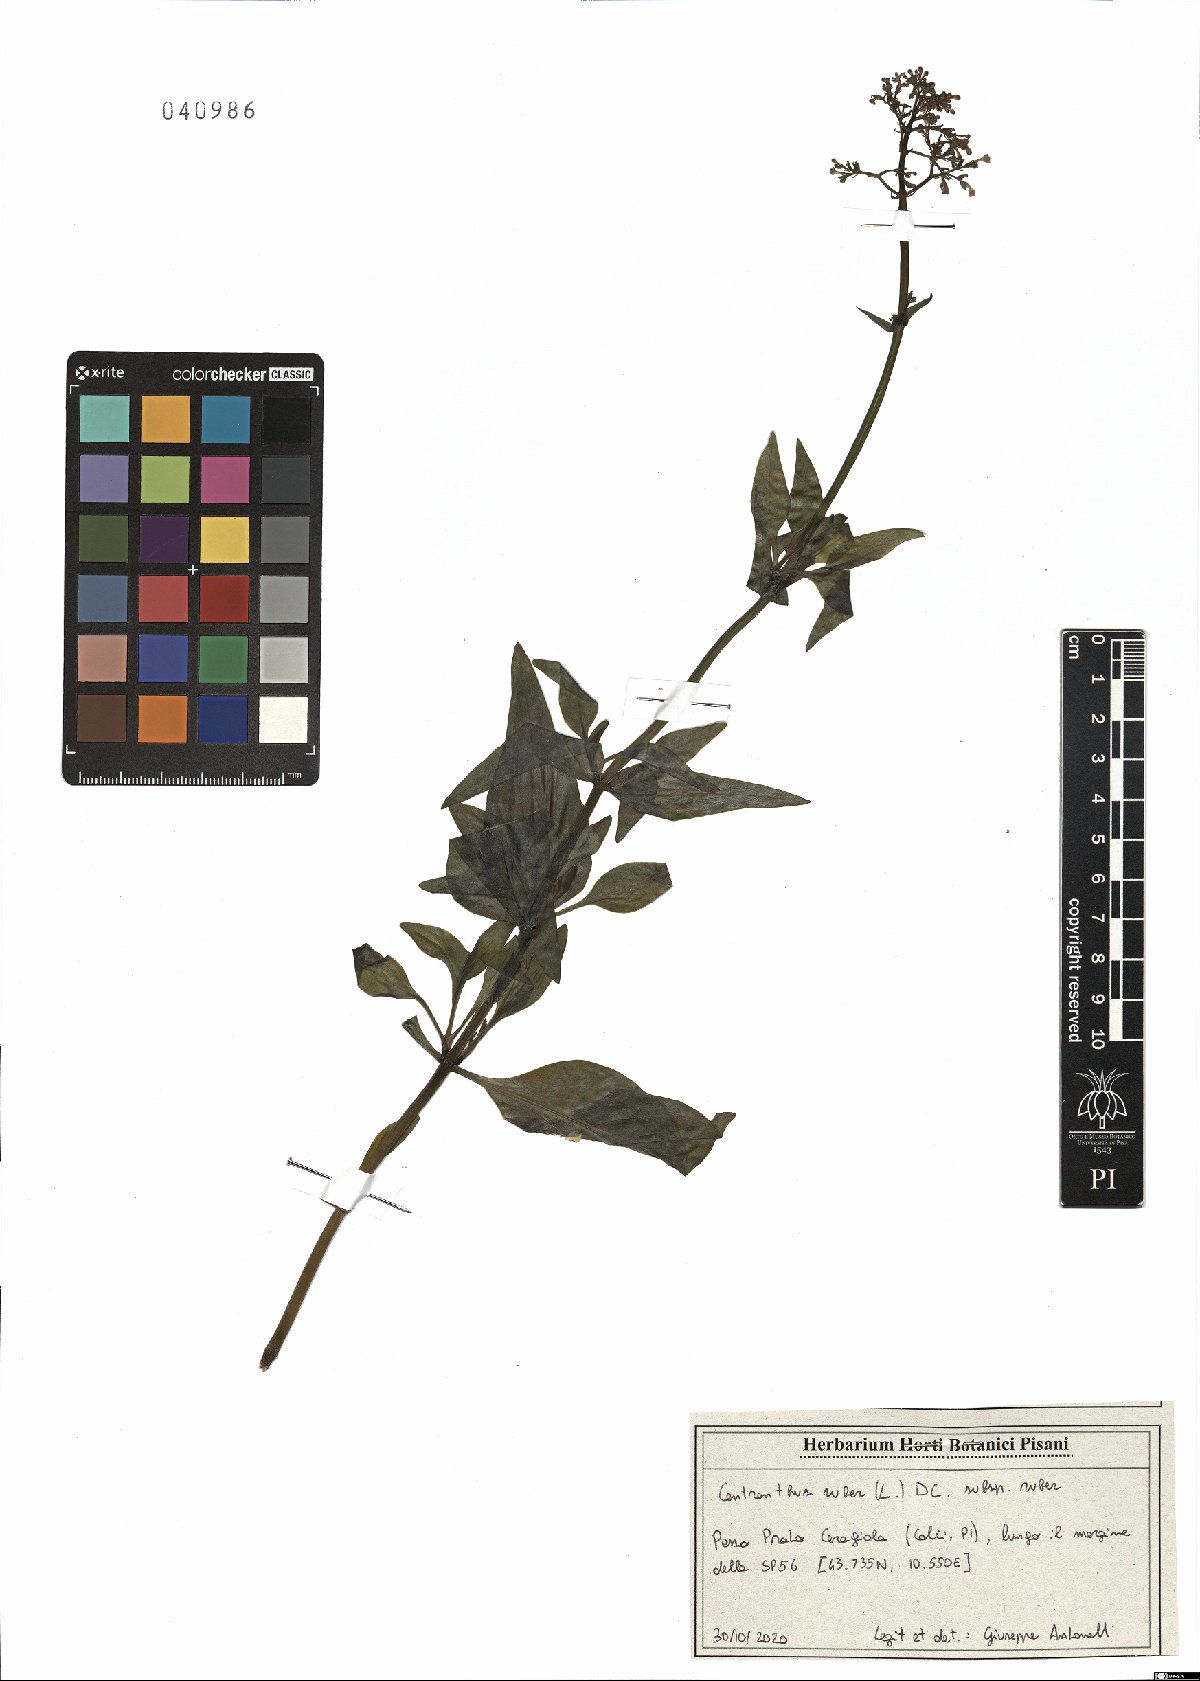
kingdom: Plantae
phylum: Tracheophyta
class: Magnoliopsida
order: Dipsacales
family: Caprifoliaceae
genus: Centranthus
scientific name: Centranthus ruber
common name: Red valerian
